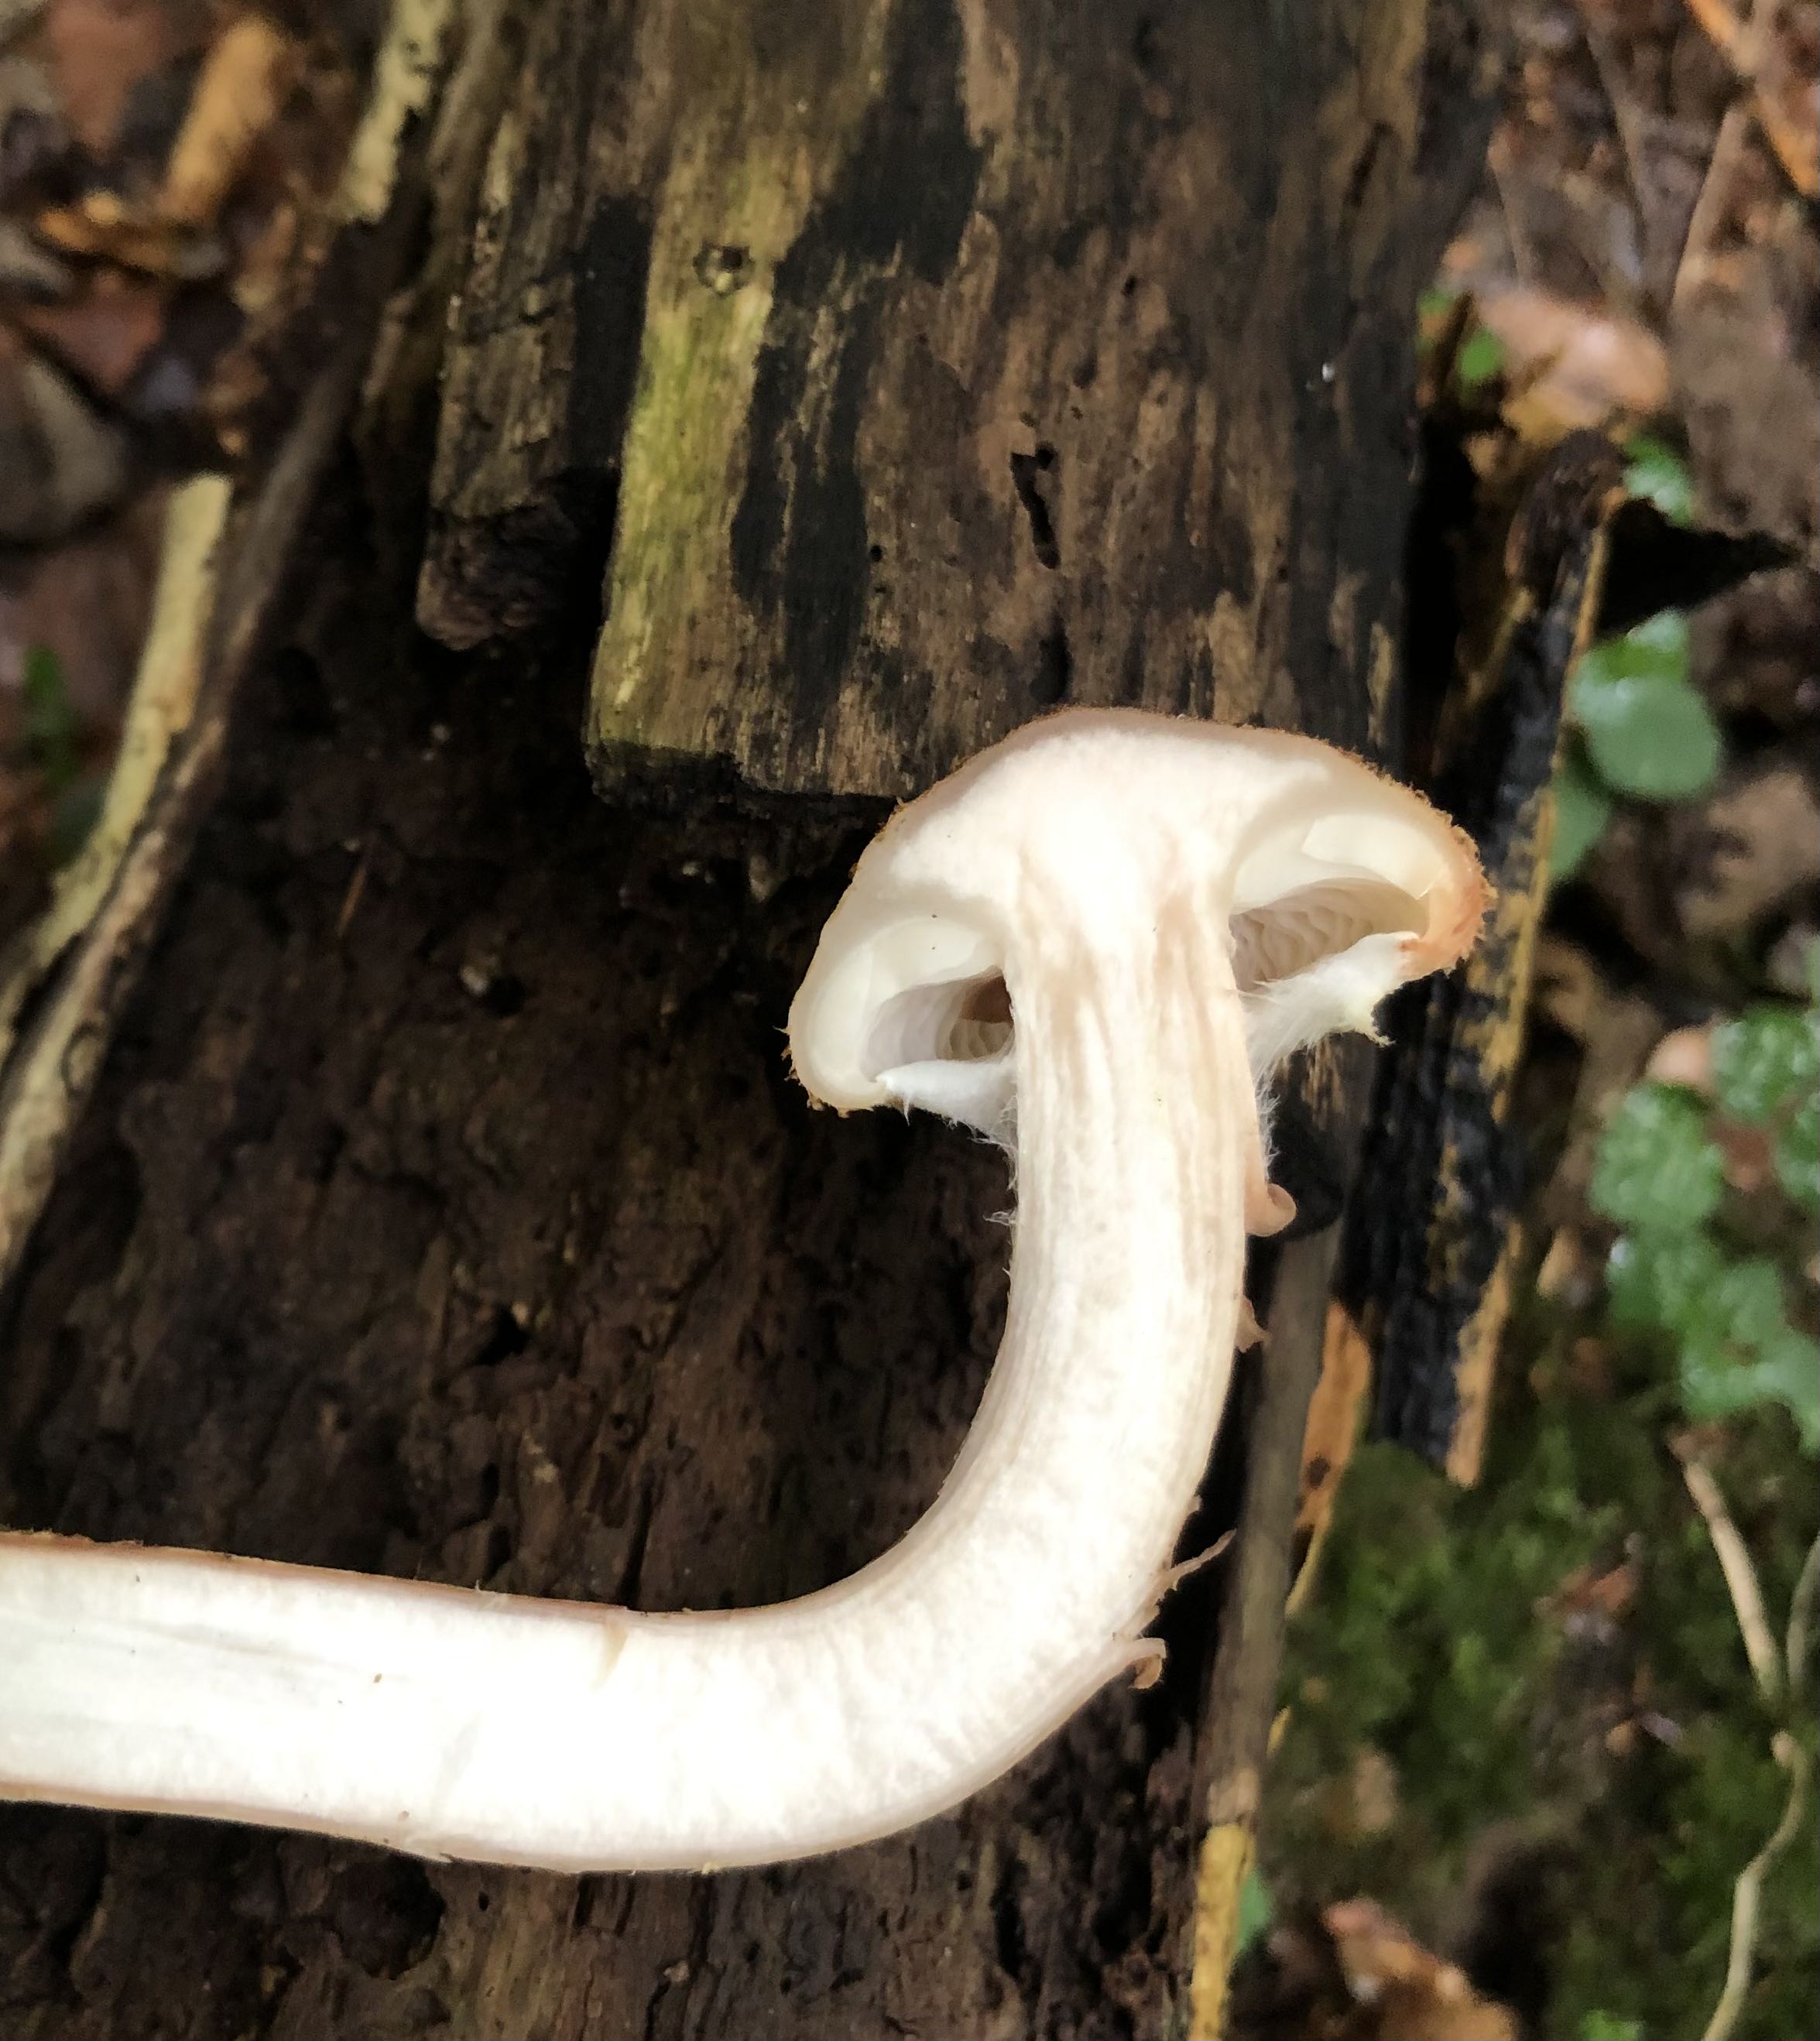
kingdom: Fungi
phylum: Basidiomycota
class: Agaricomycetes
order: Agaricales
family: Physalacriaceae
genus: Armillaria
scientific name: Armillaria lutea
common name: køllestokket honningsvamp
